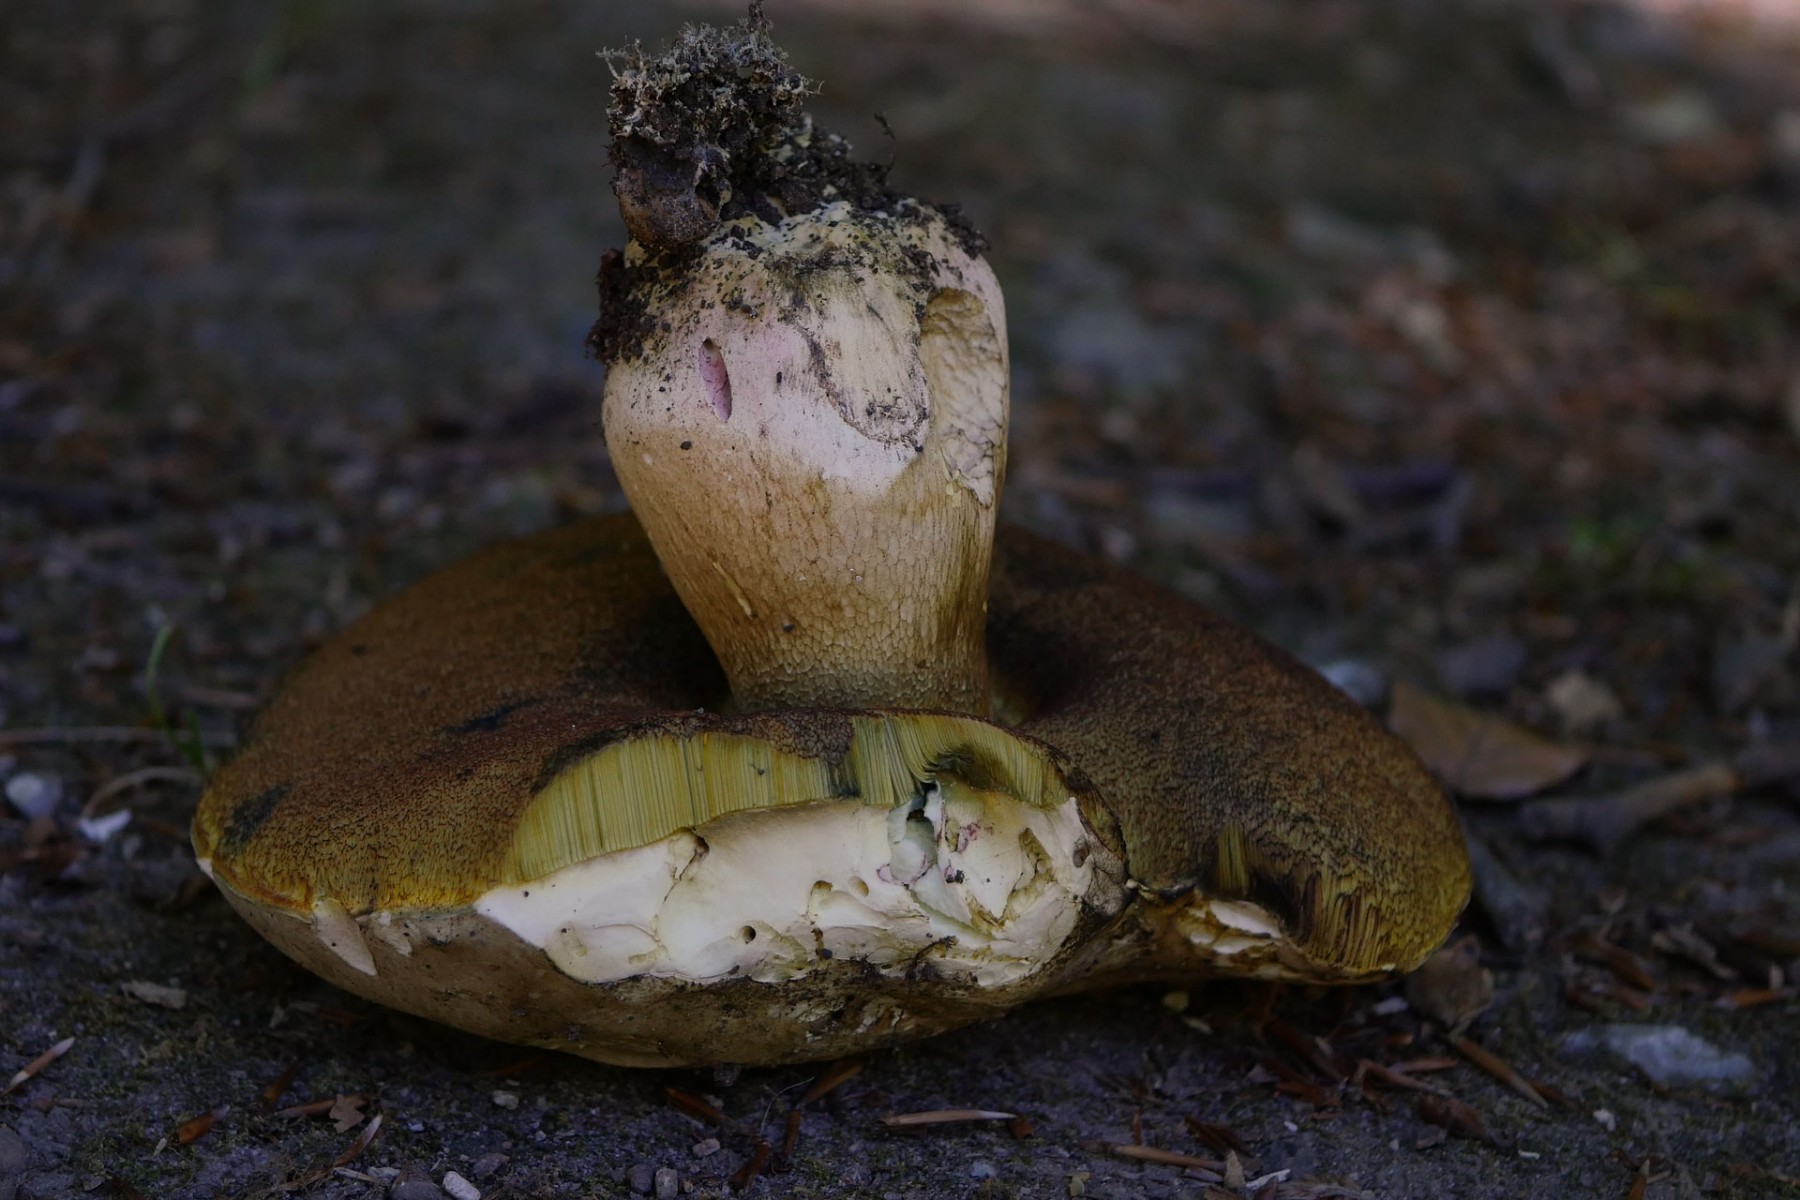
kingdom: Fungi
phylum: Basidiomycota
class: Agaricomycetes
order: Boletales
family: Boletaceae
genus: Caloboletus
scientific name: Caloboletus radicans
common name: rod-rørhat
